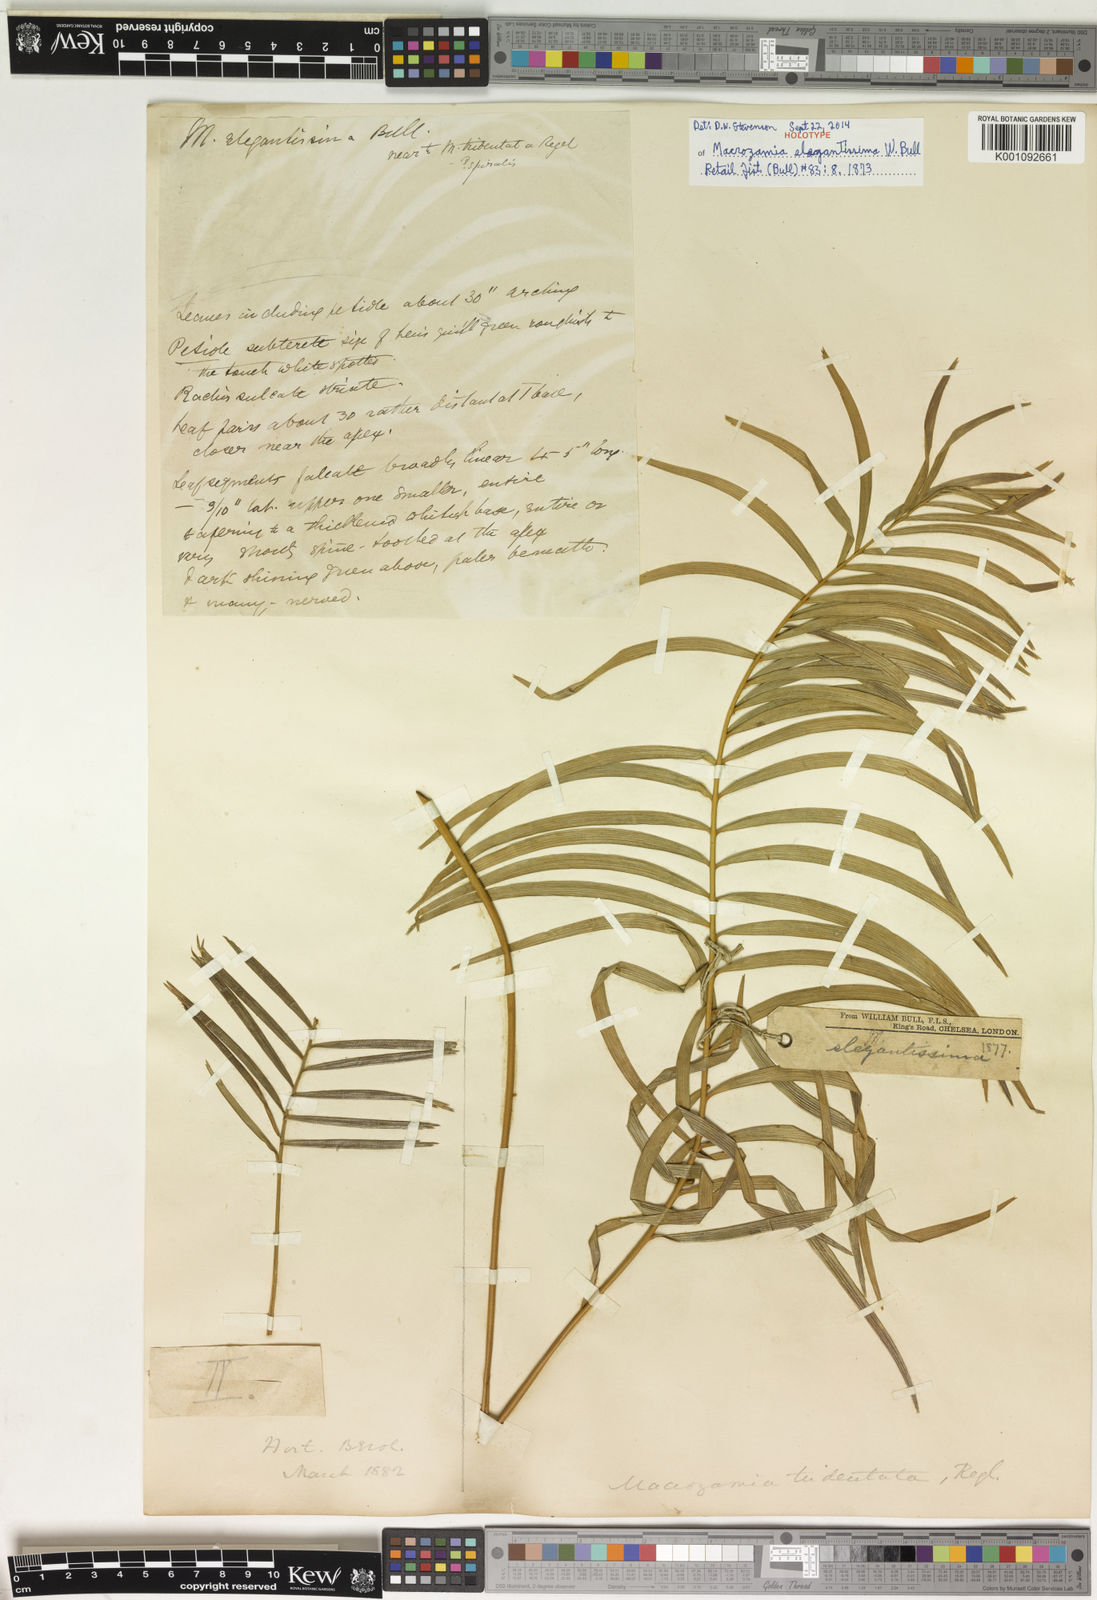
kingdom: Plantae
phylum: Tracheophyta
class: Cycadopsida
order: Cycadales
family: Zamiaceae
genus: Zamia
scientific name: Zamia tridentata
